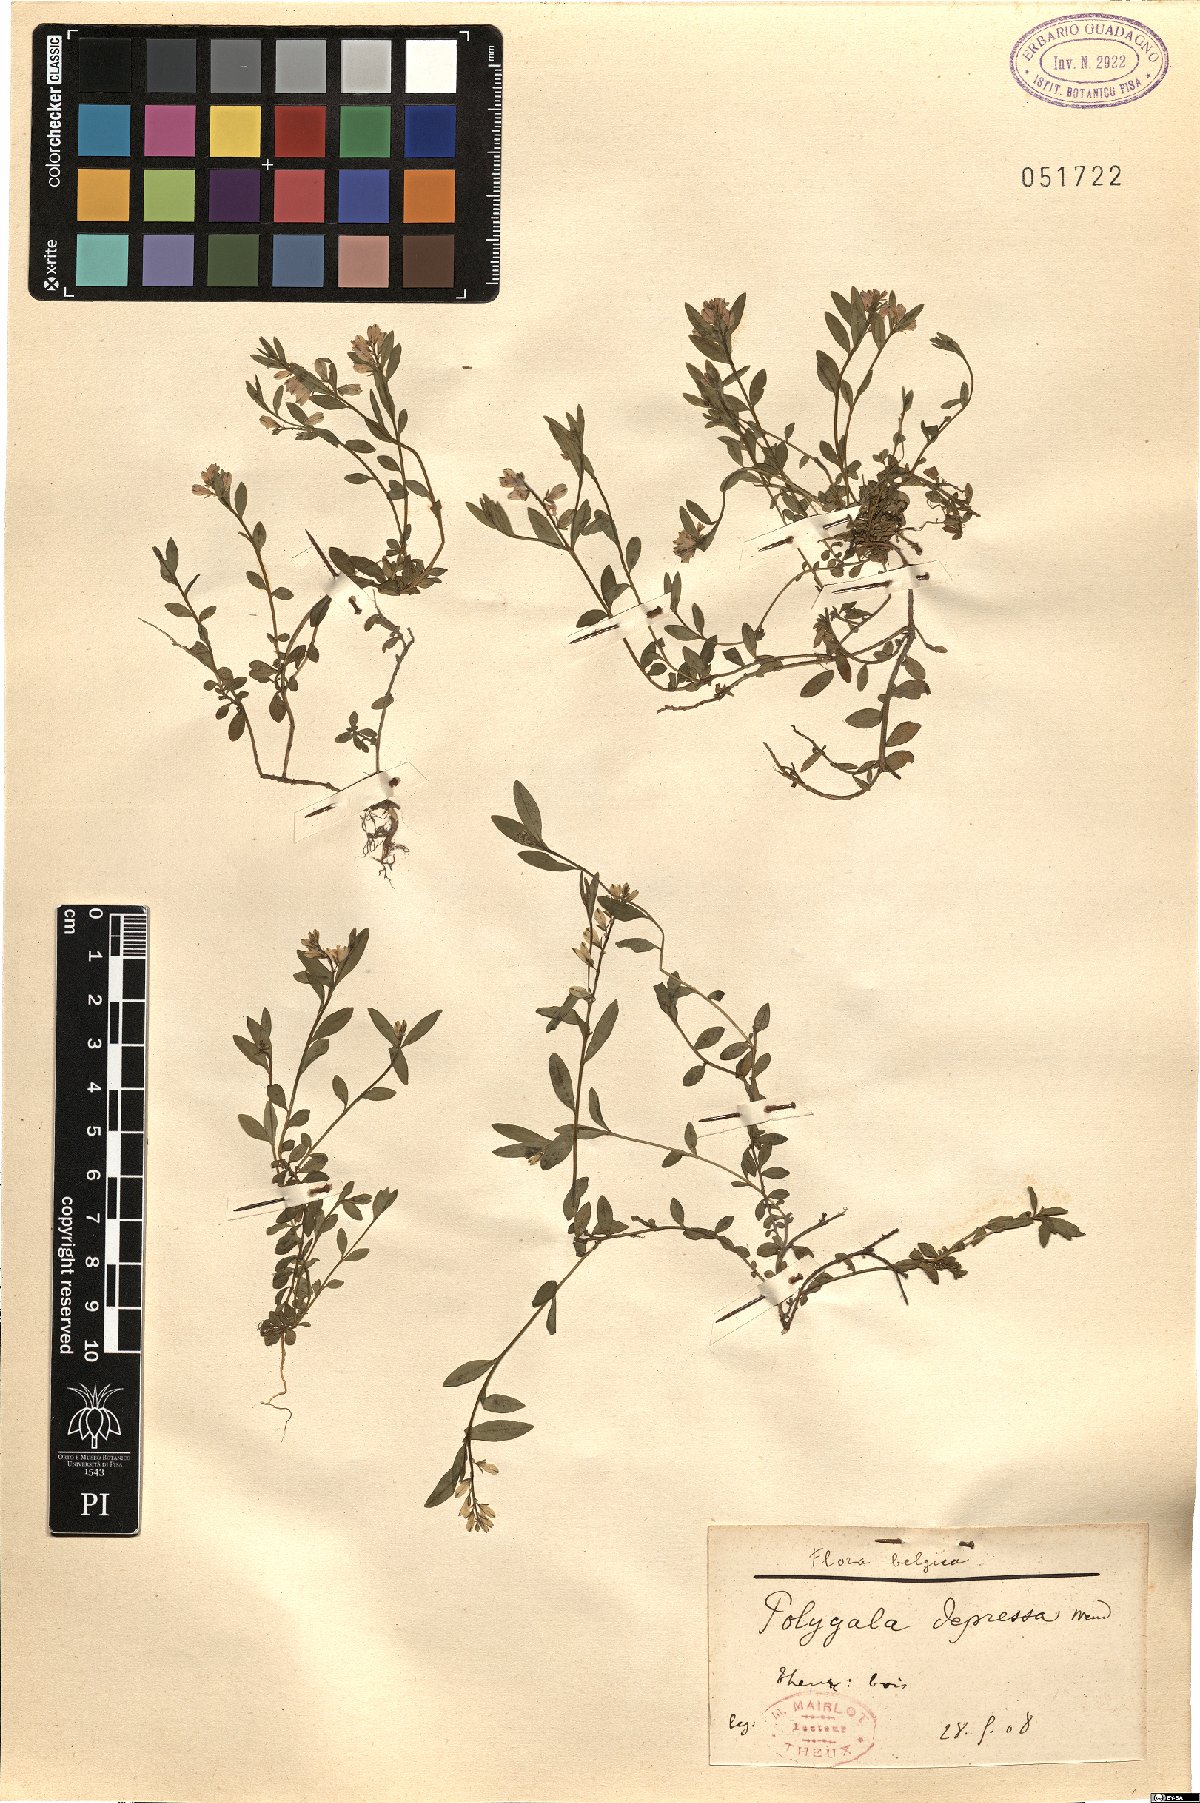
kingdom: Plantae
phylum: Tracheophyta
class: Magnoliopsida
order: Fabales
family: Polygalaceae
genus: Polygala
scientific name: Polygala serpyllifolia
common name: Heath milkwort
